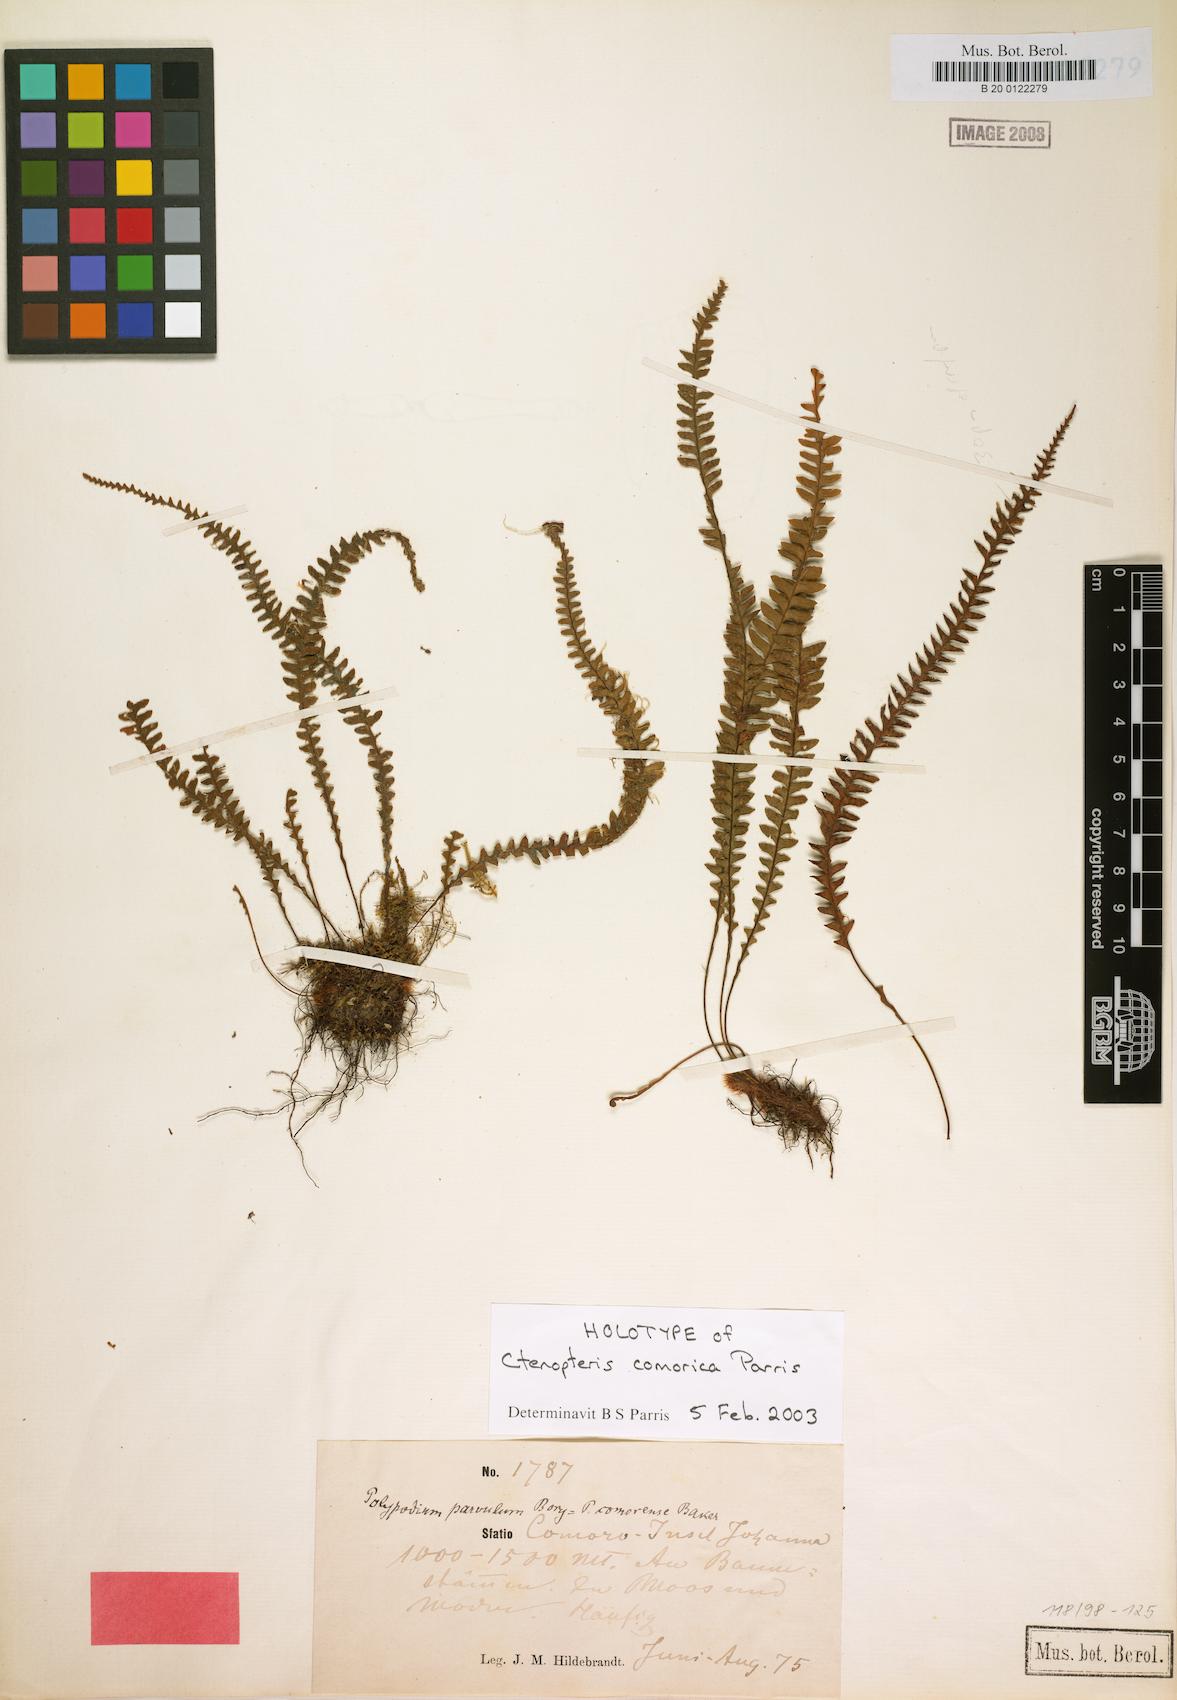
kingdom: Plantae
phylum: Tracheophyta
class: Polypodiopsida
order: Polypodiales
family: Polypodiaceae
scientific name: Polypodiaceae
